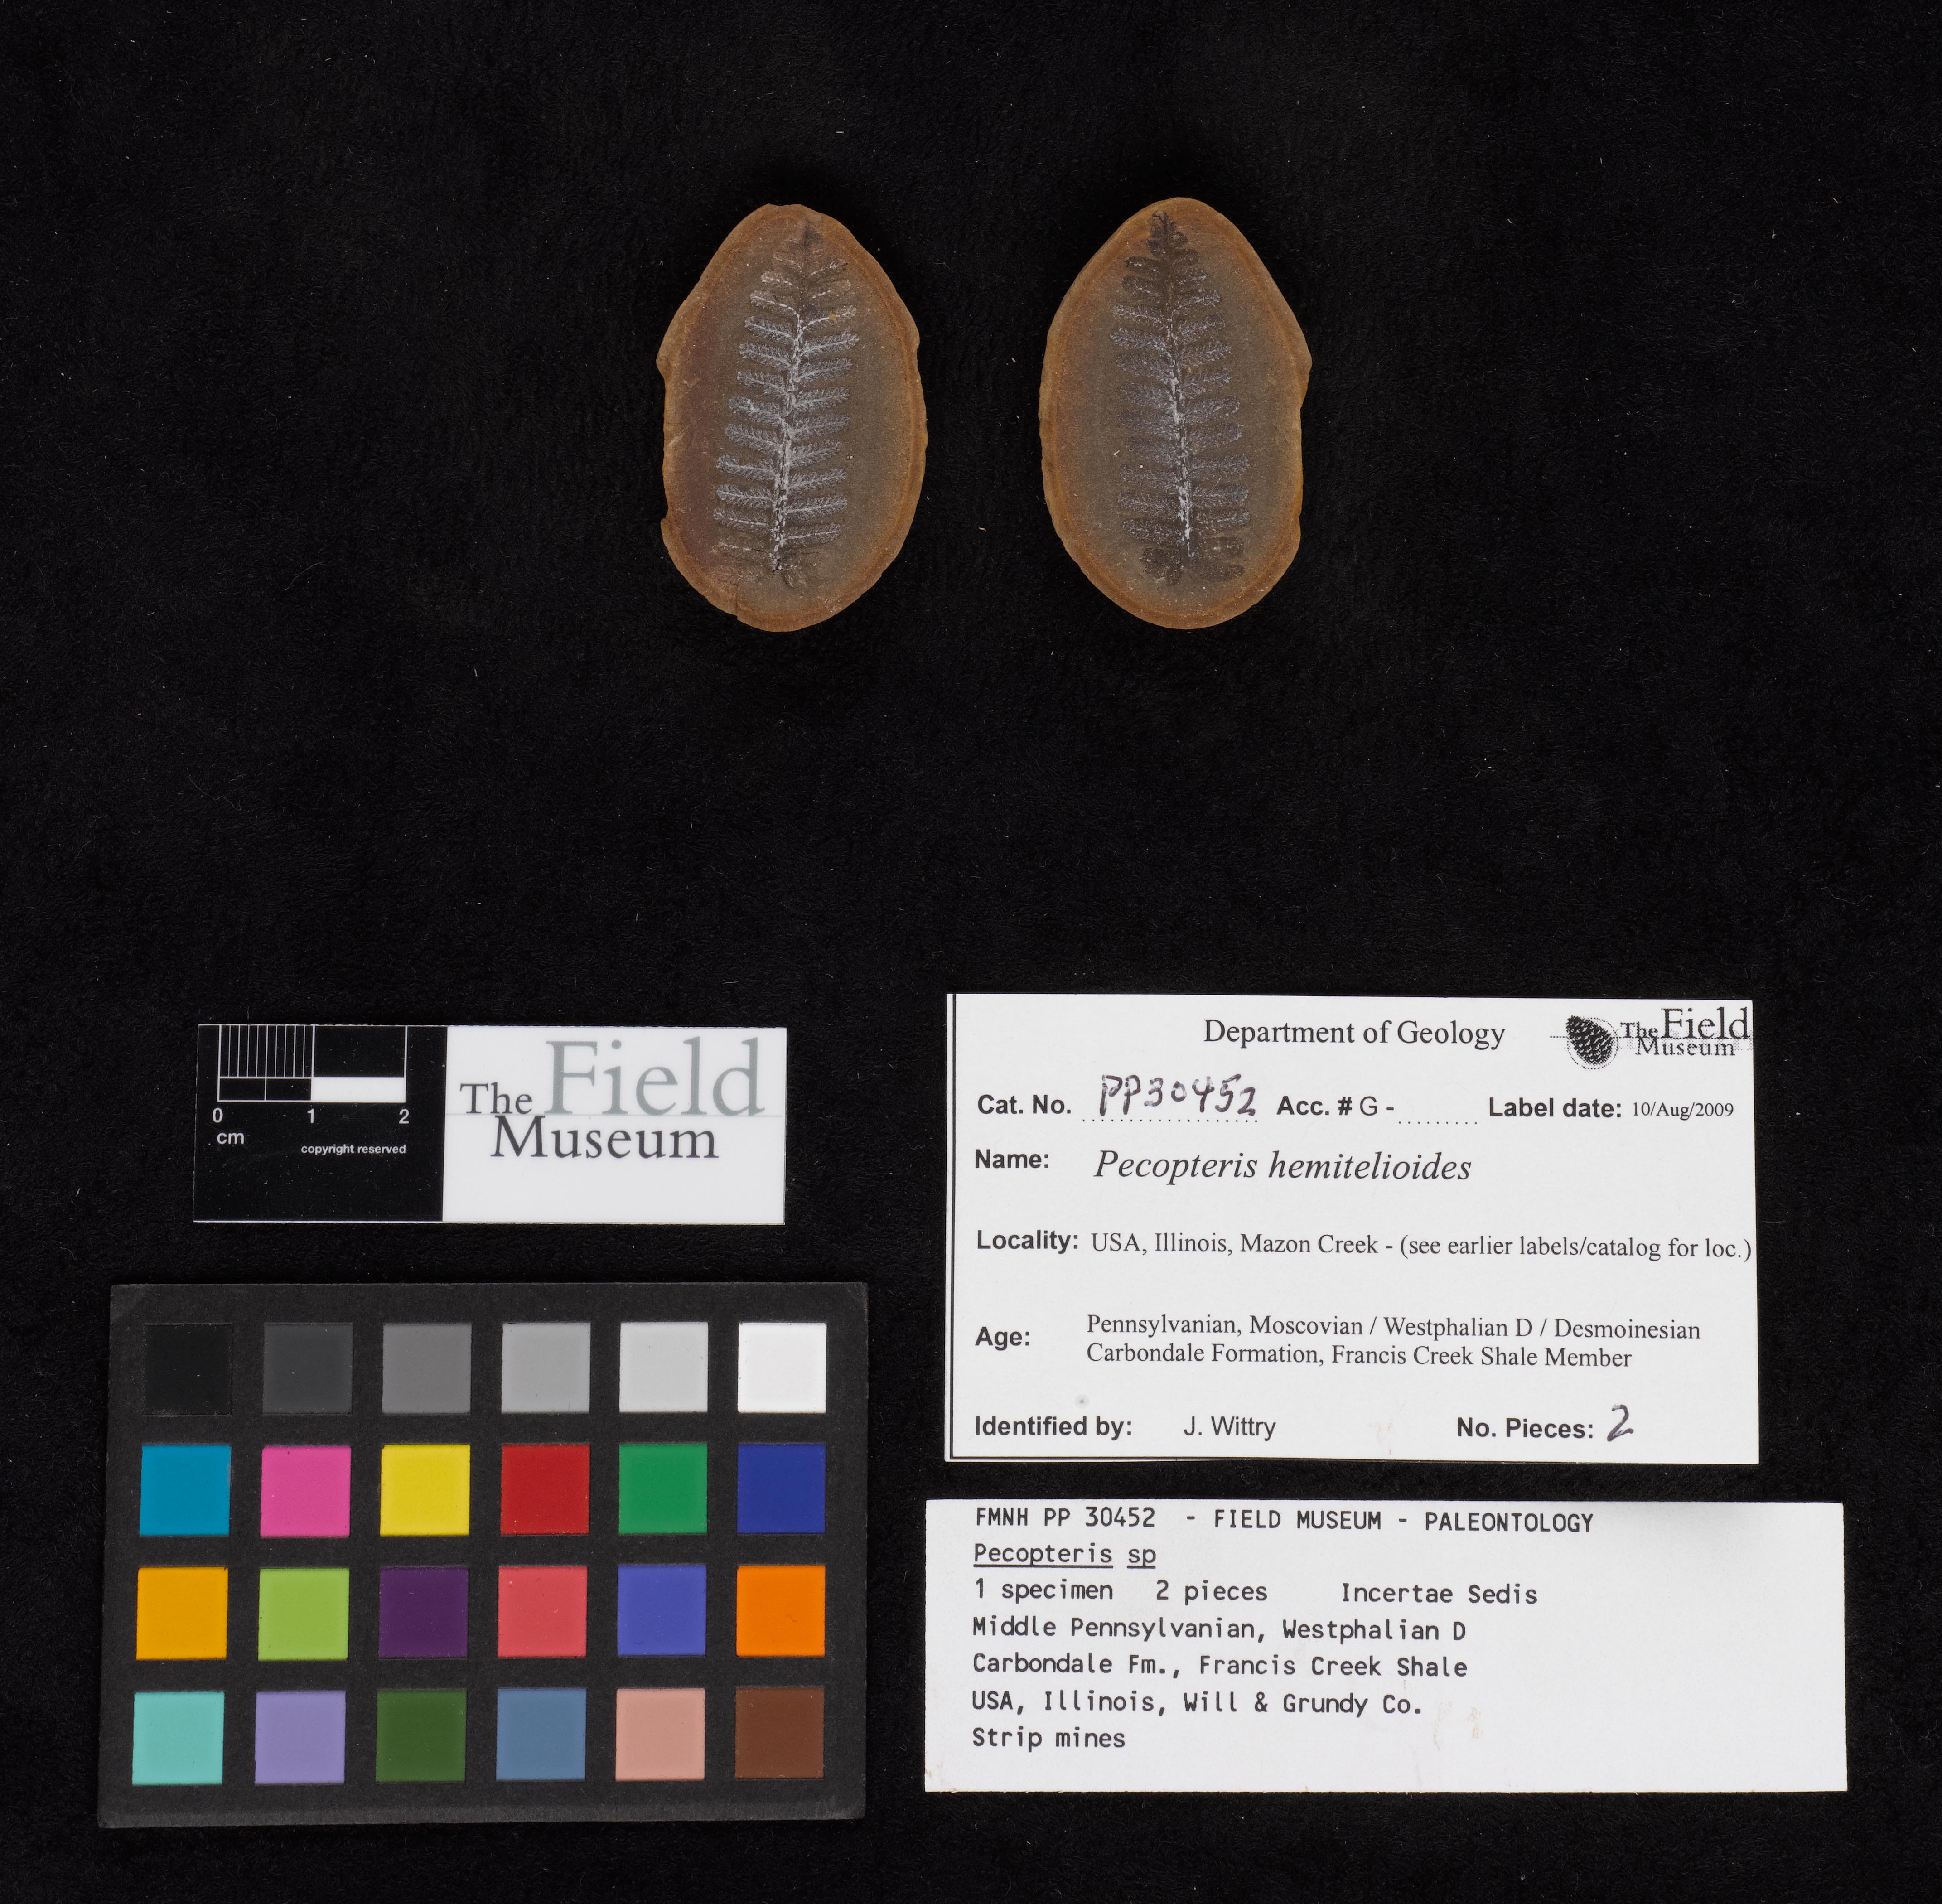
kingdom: Plantae
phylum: Tracheophyta
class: Polypodiopsida
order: Marattiales
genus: Cyathocarpus
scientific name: Cyathocarpus
